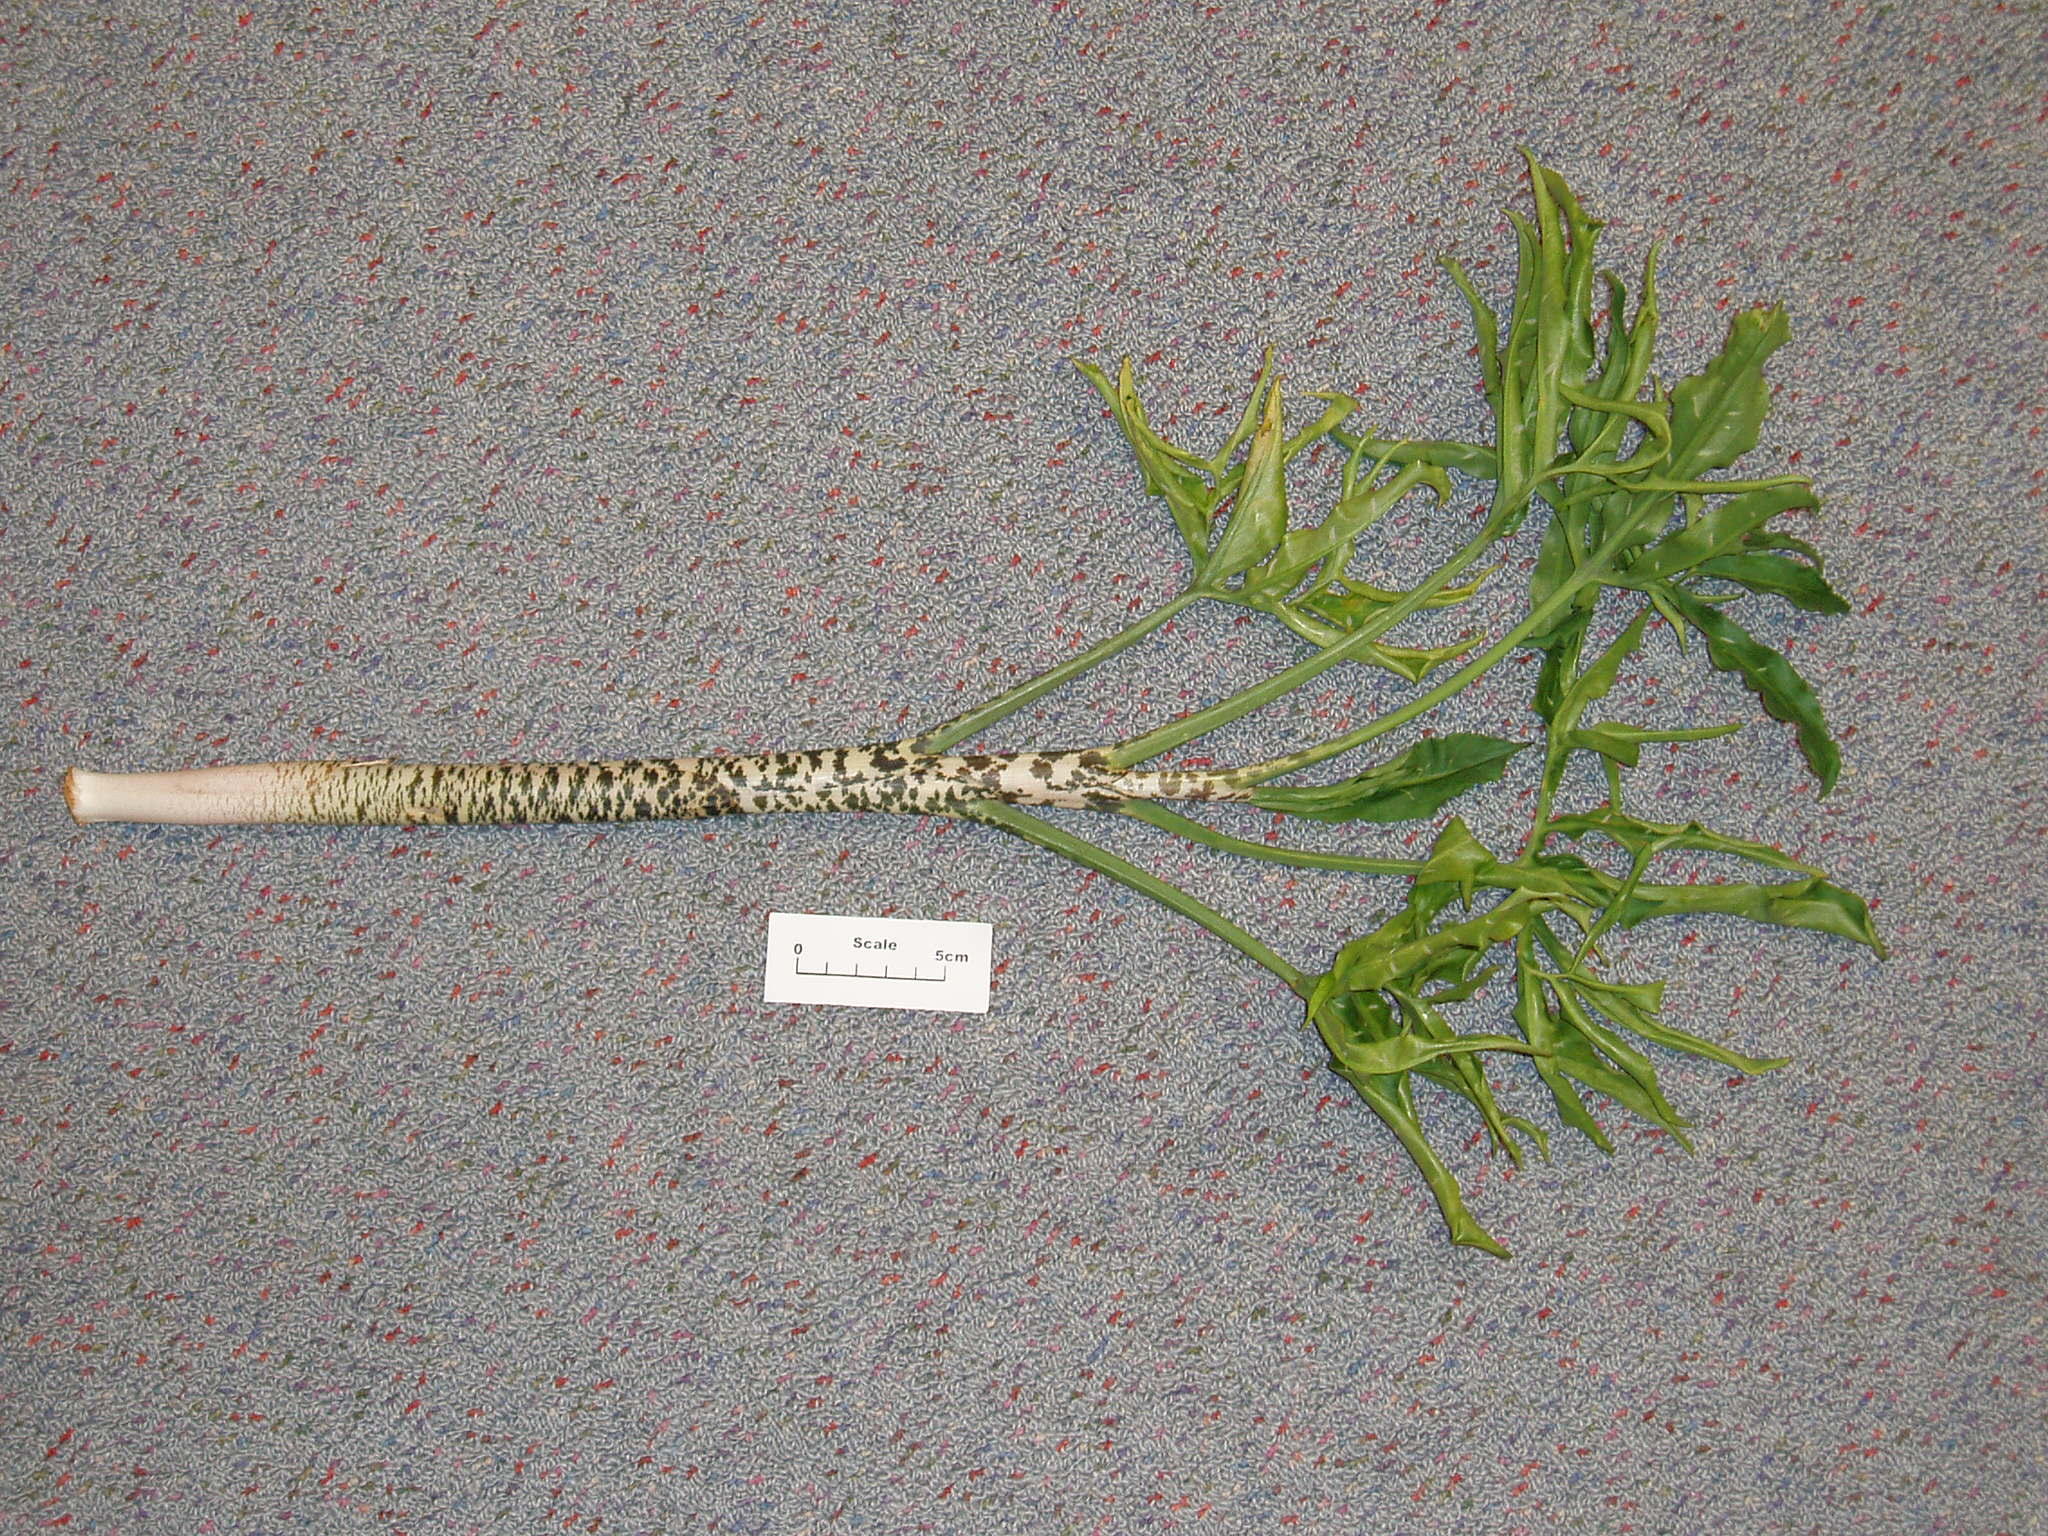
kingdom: Plantae
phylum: Tracheophyta
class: Liliopsida
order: Alismatales
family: Araceae
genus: Dracunculus
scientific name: Dracunculus vulgaris
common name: Dragon arum
